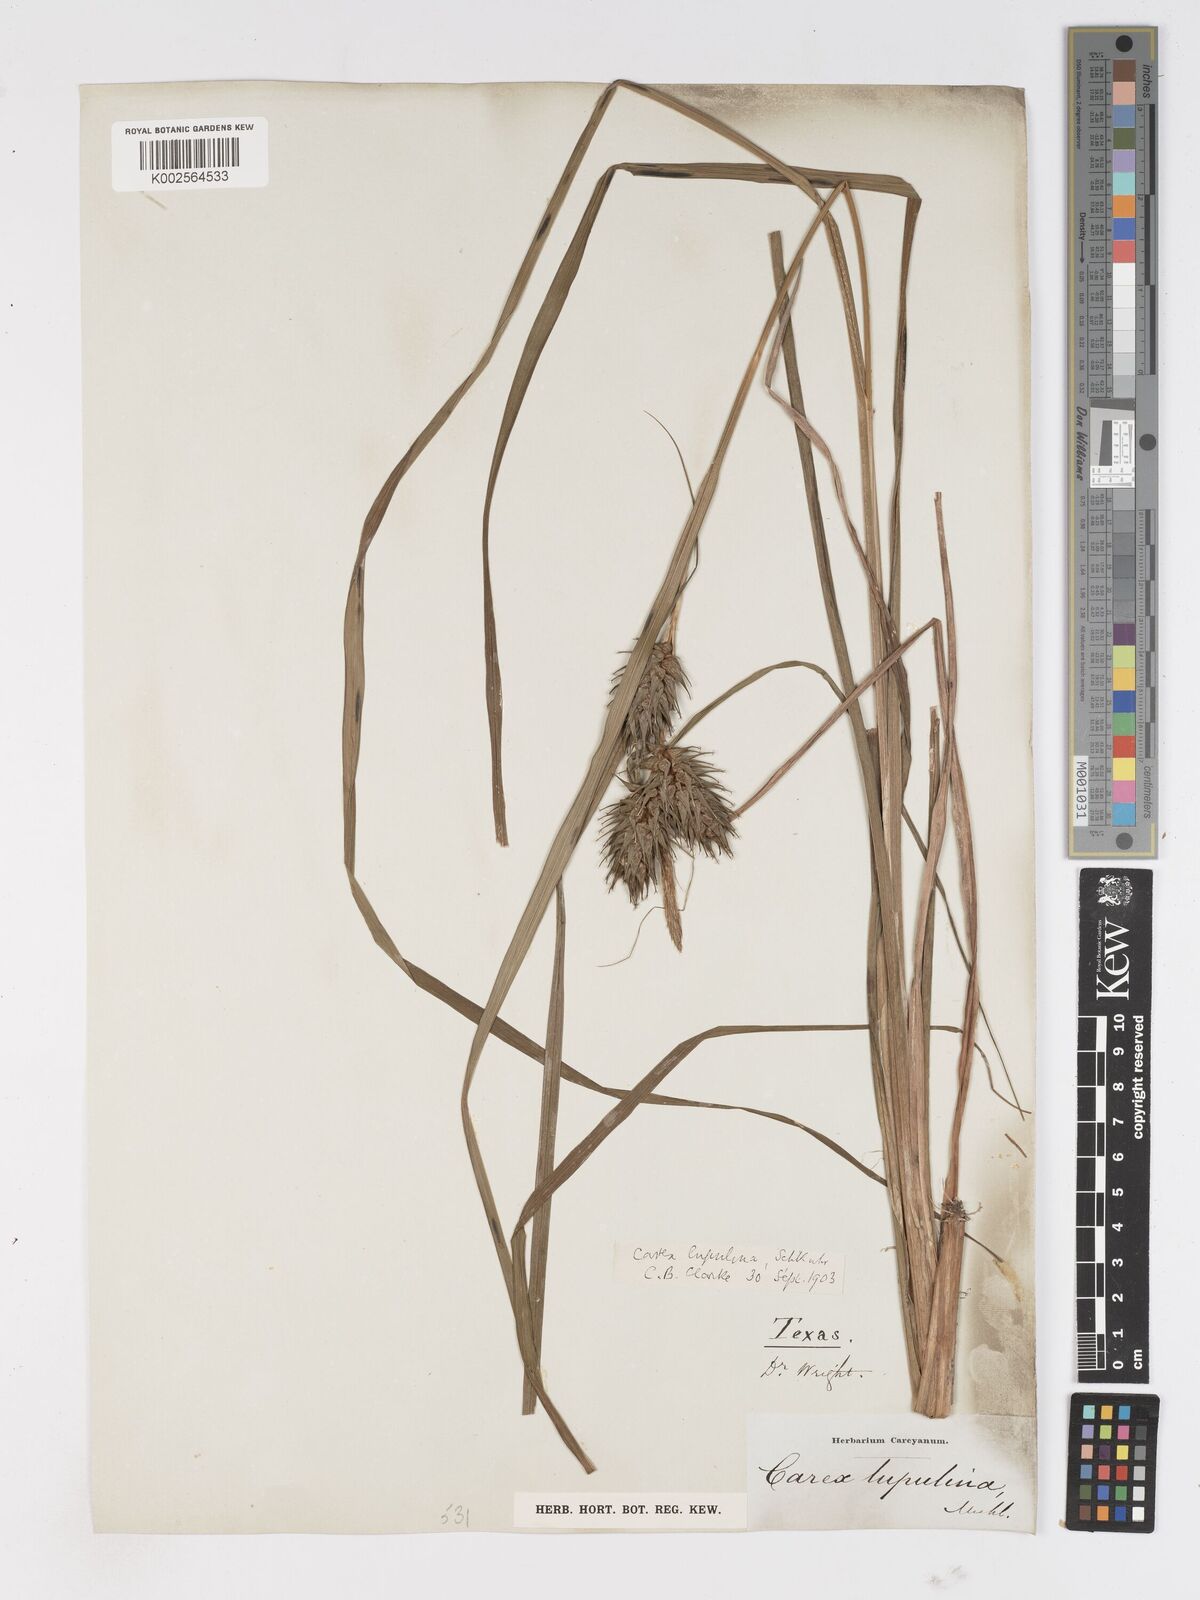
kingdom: Plantae
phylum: Tracheophyta
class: Liliopsida
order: Poales
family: Cyperaceae
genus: Carex
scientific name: Carex lupulina
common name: Hop sedge
